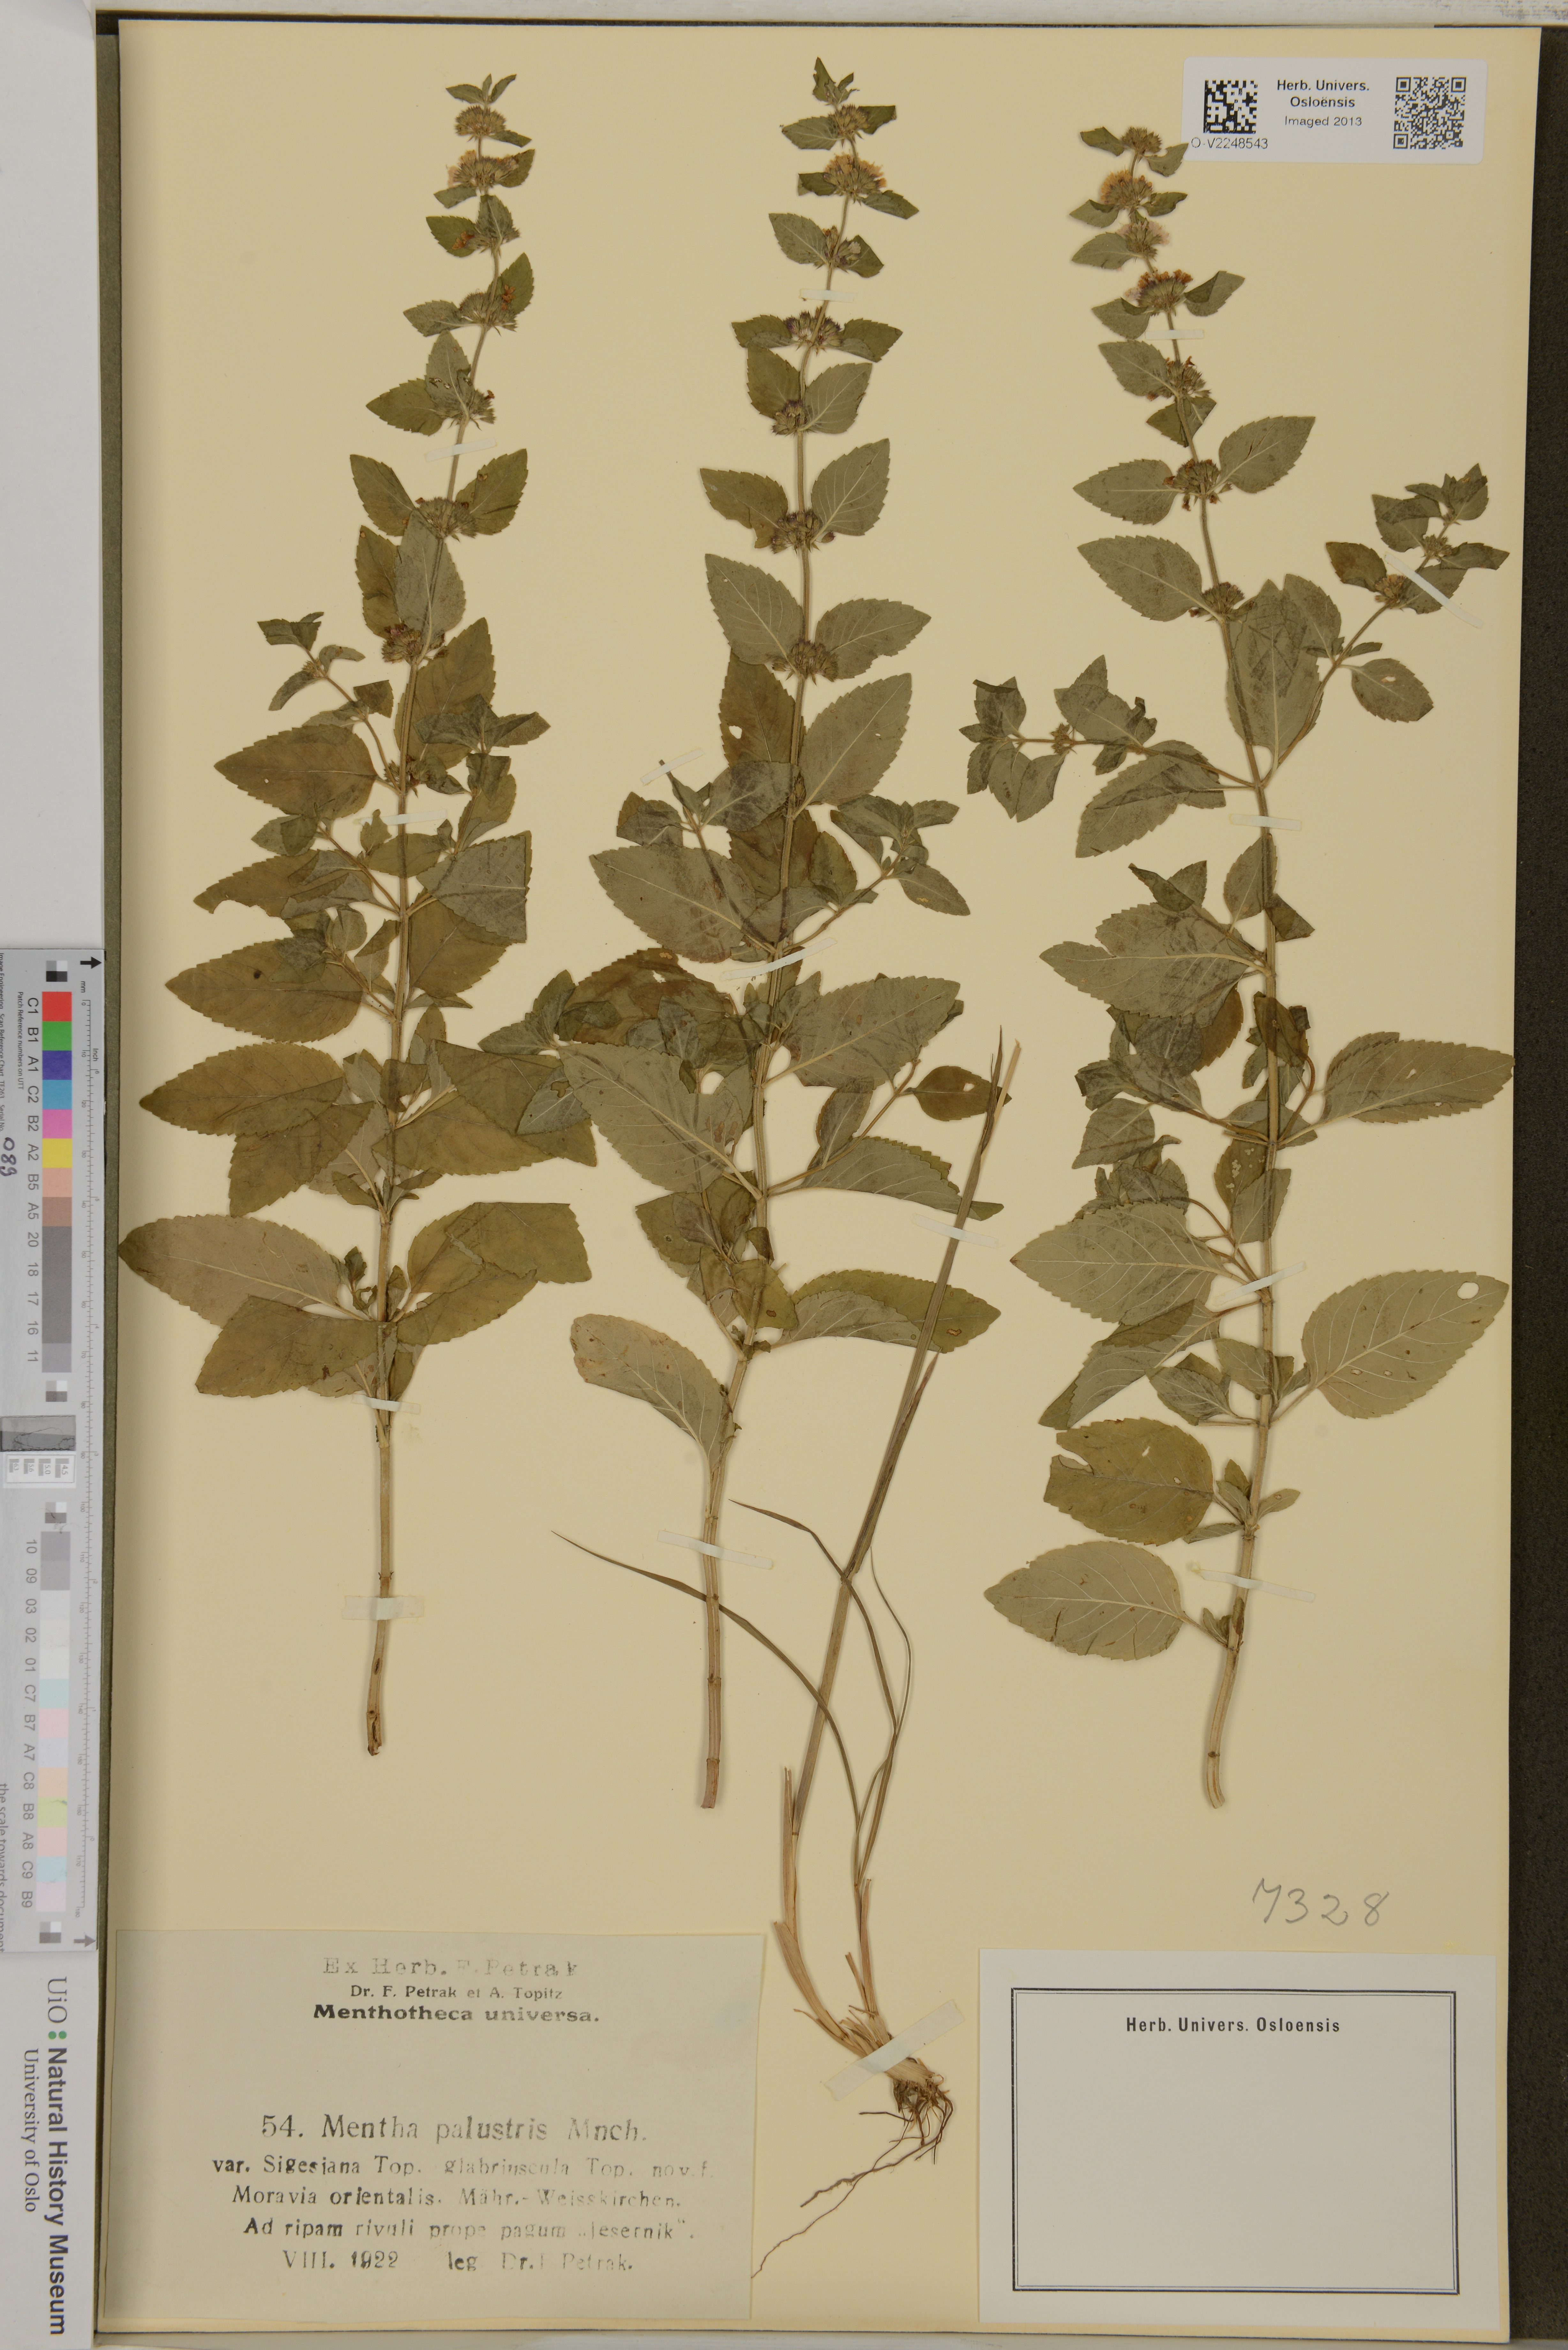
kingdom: Plantae
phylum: Tracheophyta
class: Magnoliopsida
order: Lamiales
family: Lamiaceae
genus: Mentha
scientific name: Mentha
